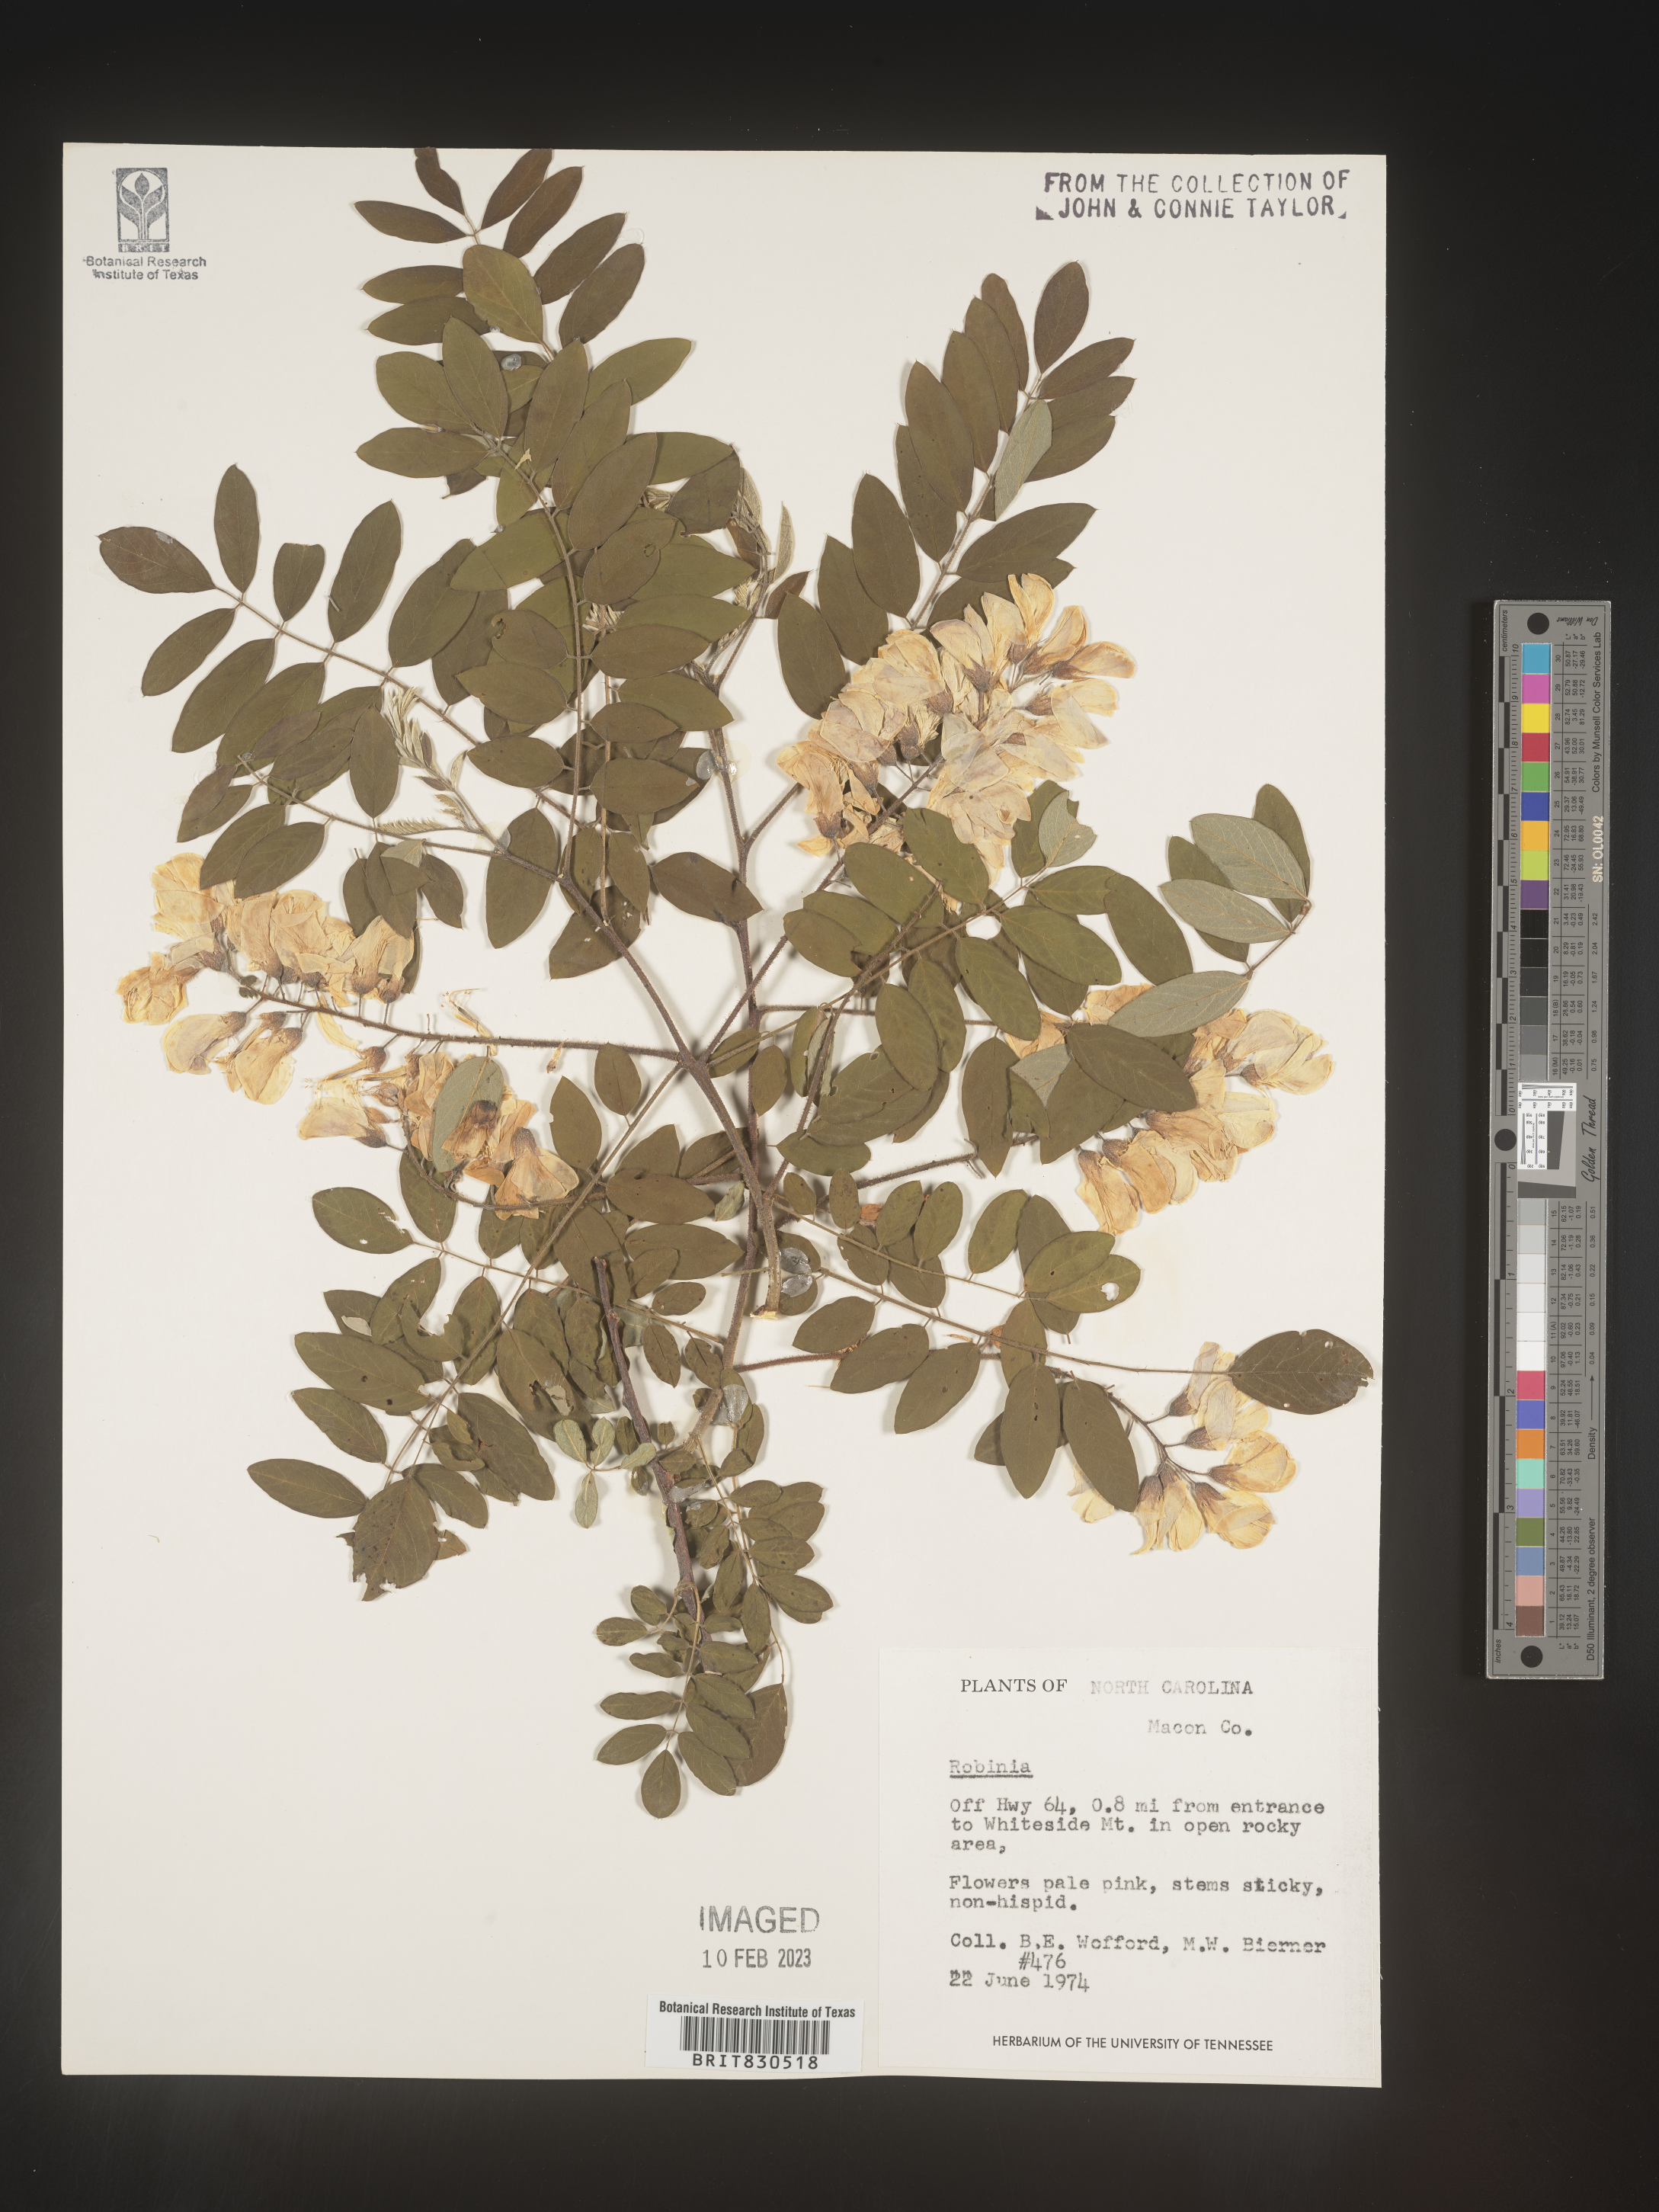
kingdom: Plantae
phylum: Tracheophyta
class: Magnoliopsida
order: Fabales
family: Fabaceae
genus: Robinia
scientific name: Robinia
